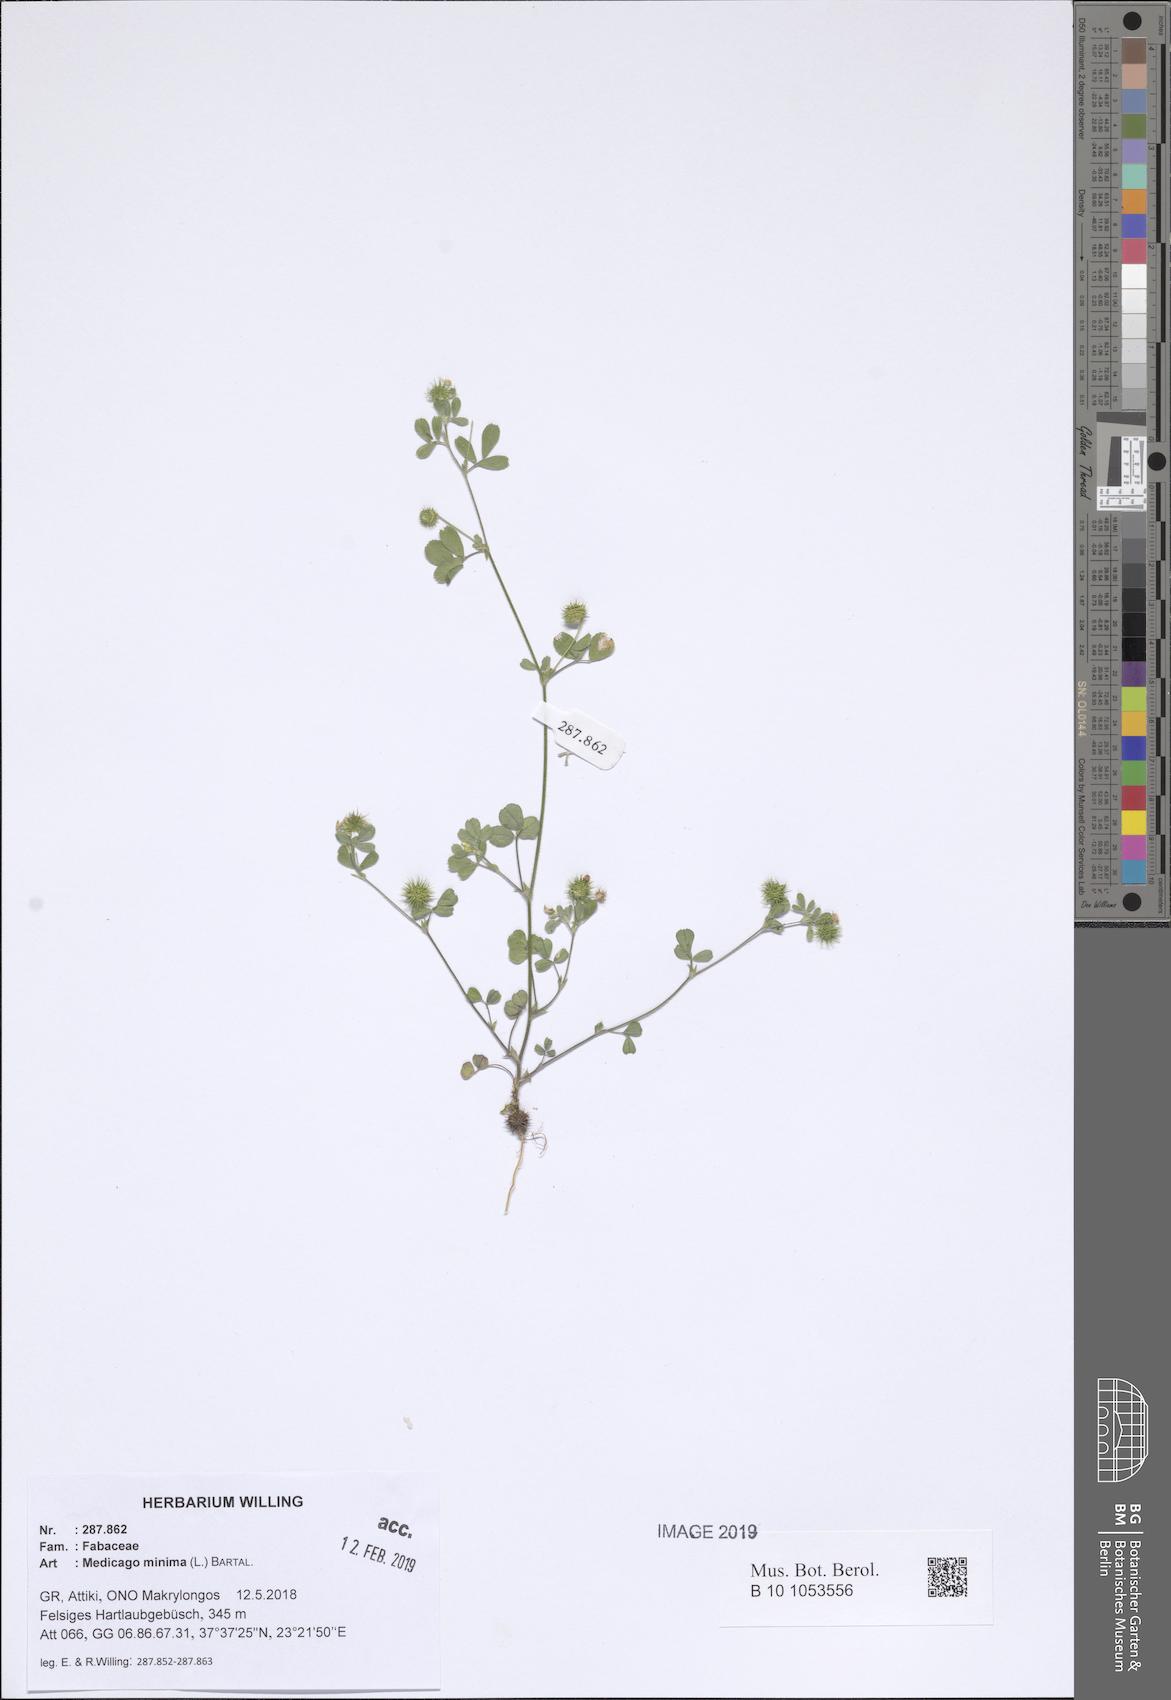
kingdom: Plantae
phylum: Tracheophyta
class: Magnoliopsida
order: Fabales
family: Fabaceae
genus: Medicago
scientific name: Medicago minima
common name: Little bur-clover
